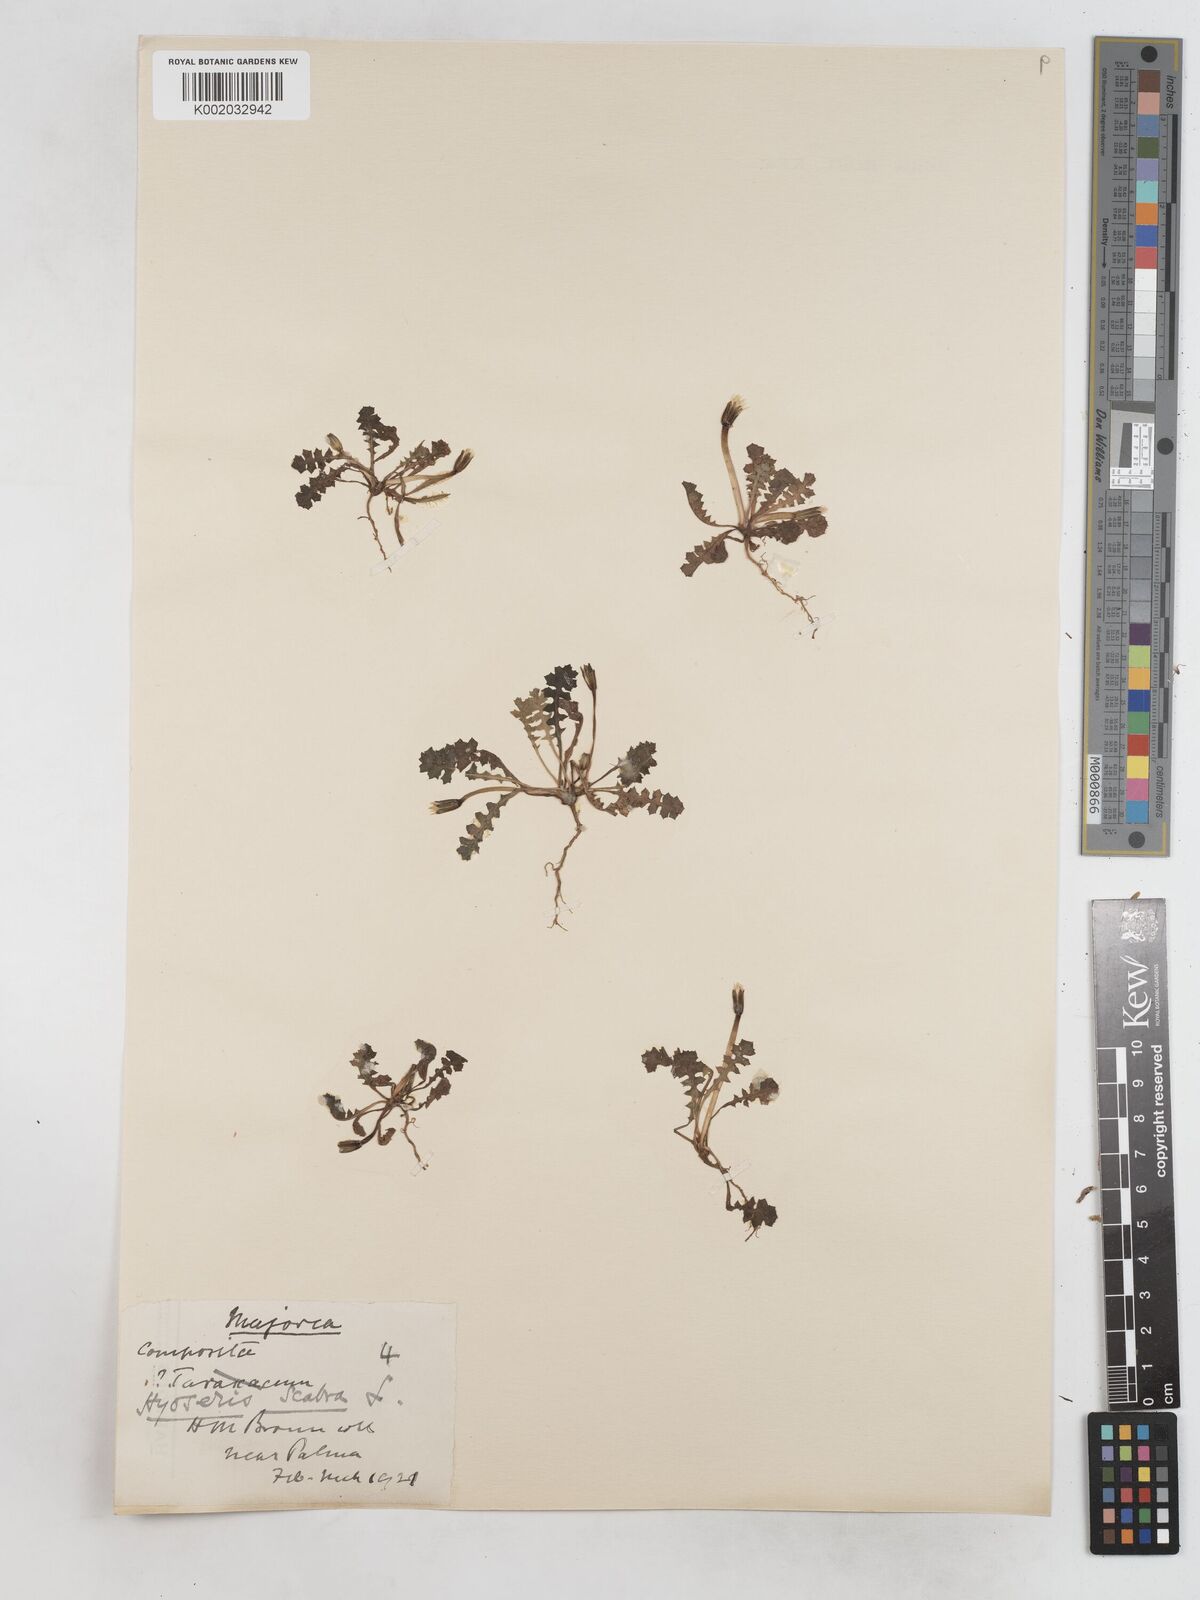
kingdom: Plantae
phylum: Tracheophyta
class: Magnoliopsida
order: Asterales
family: Asteraceae
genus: Hyoseris
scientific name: Hyoseris scabra
